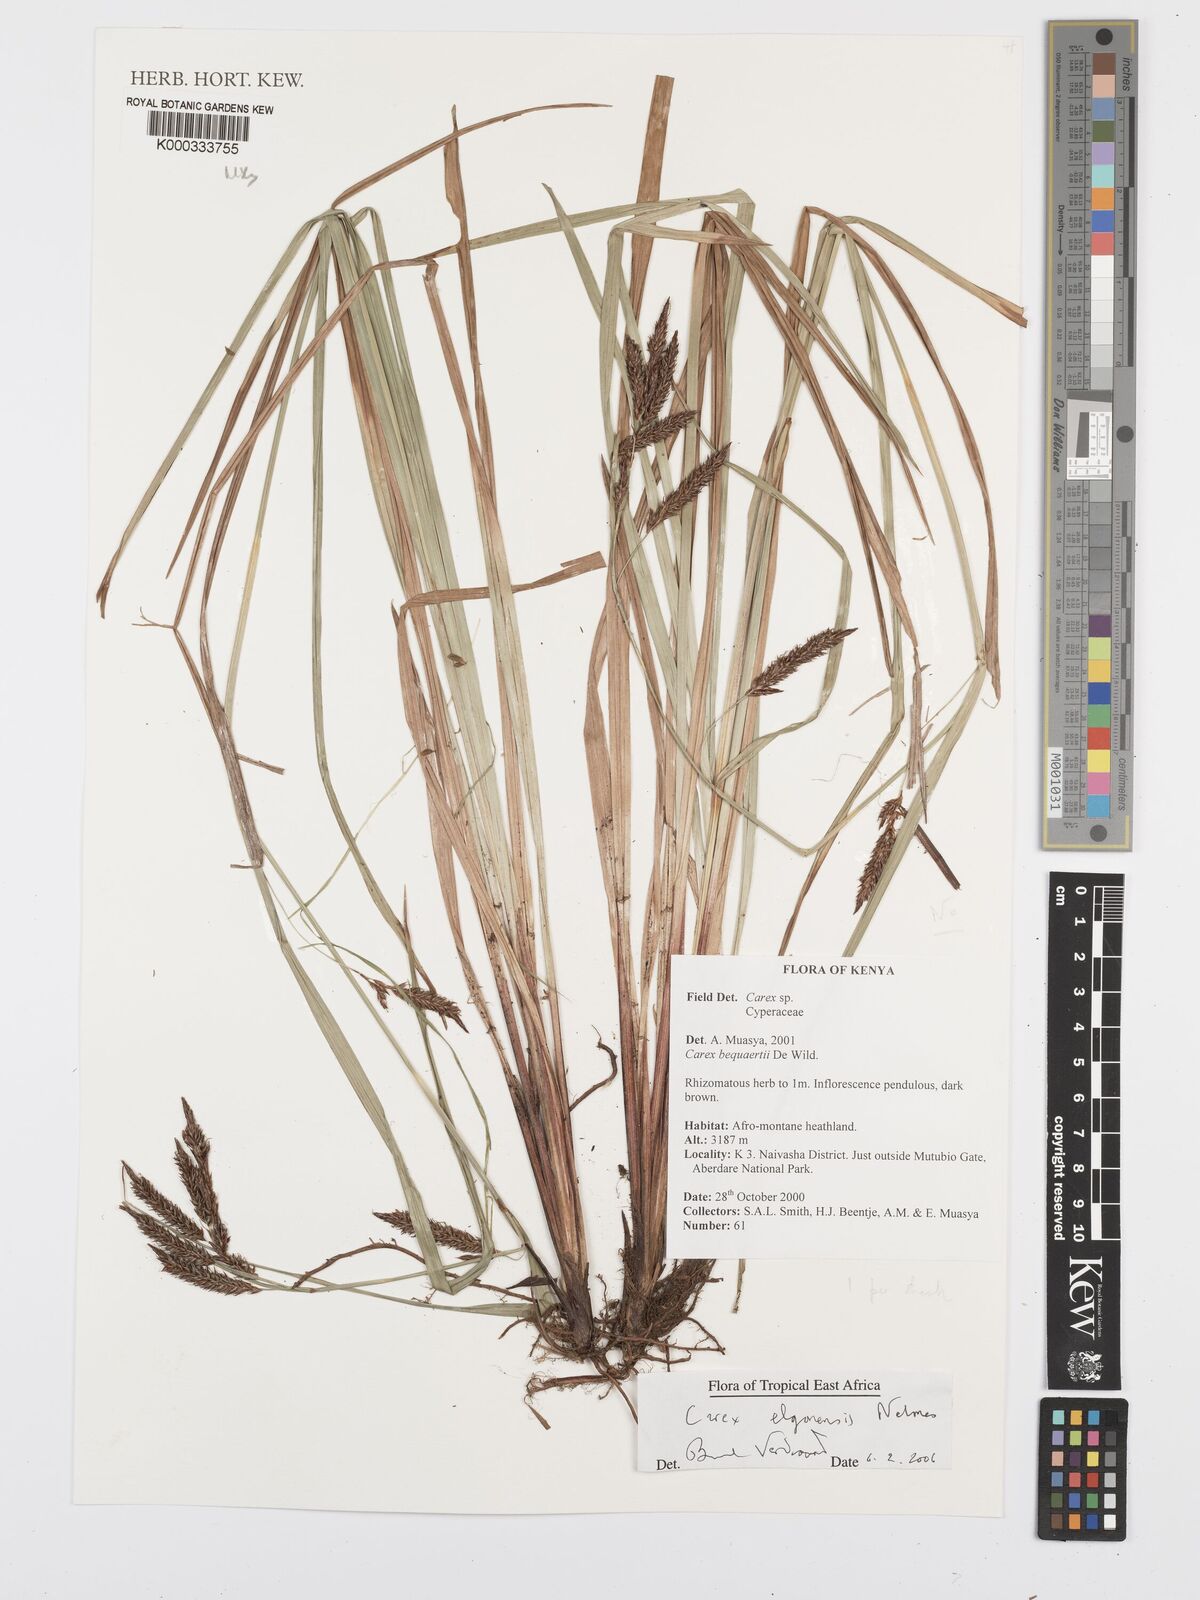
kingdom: Plantae
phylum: Tracheophyta
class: Liliopsida
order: Poales
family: Cyperaceae
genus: Carex
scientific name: Carex elgonensis
